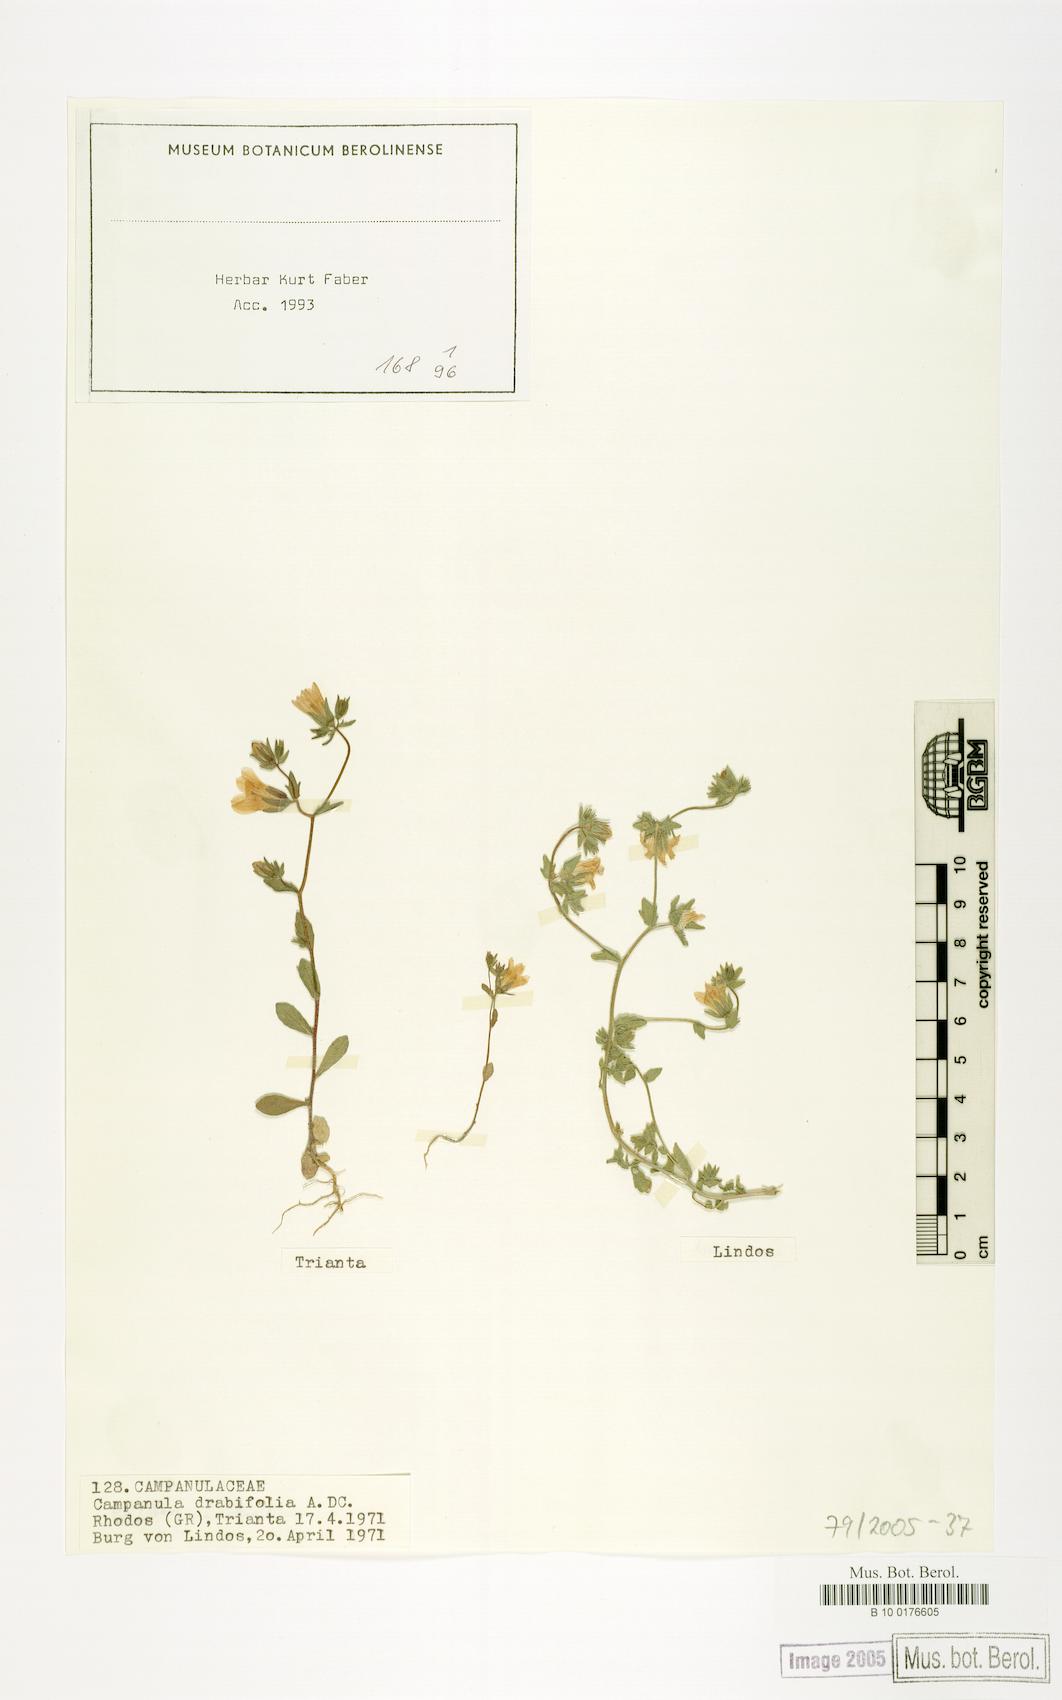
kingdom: Plantae
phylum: Tracheophyta
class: Magnoliopsida
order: Asterales
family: Campanulaceae
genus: Campanula
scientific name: Campanula drabifolia
